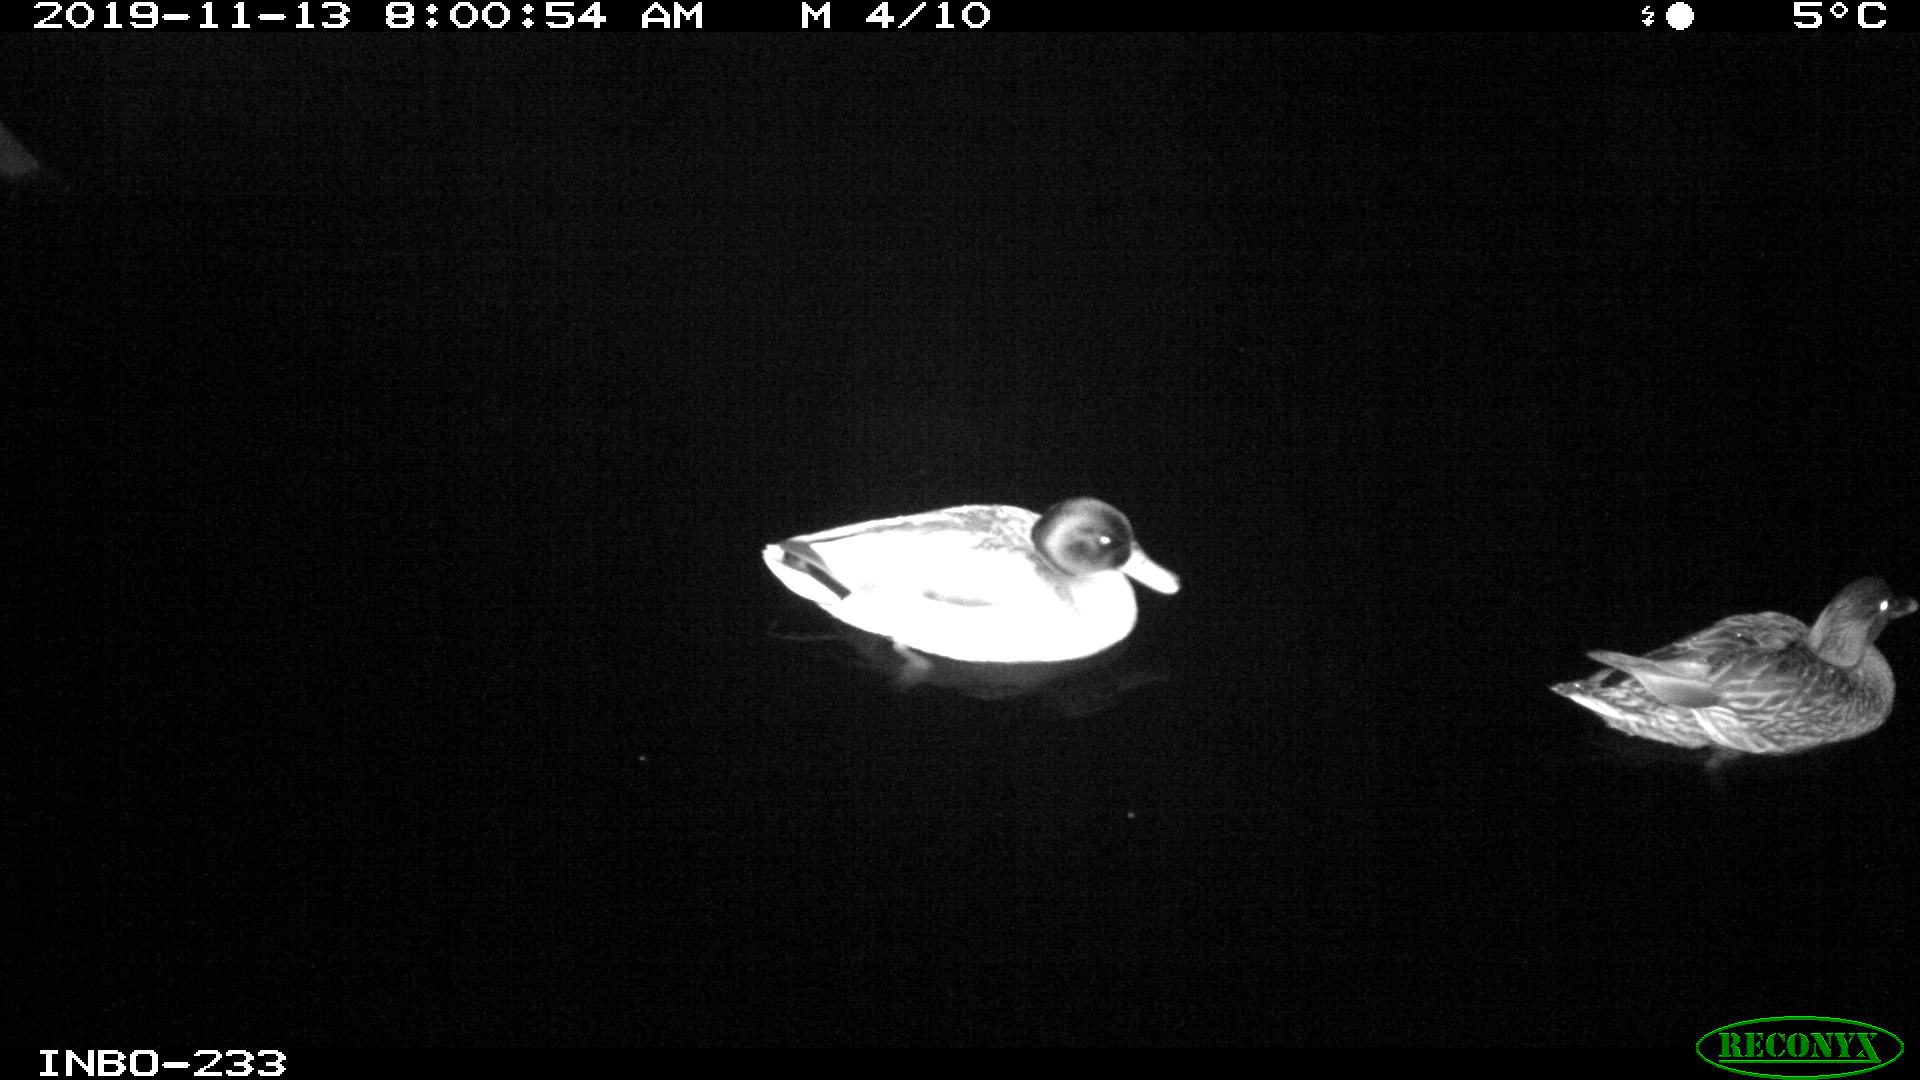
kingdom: Animalia
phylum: Chordata
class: Aves
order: Anseriformes
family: Anatidae
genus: Anas
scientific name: Anas platyrhynchos
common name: Mallard
